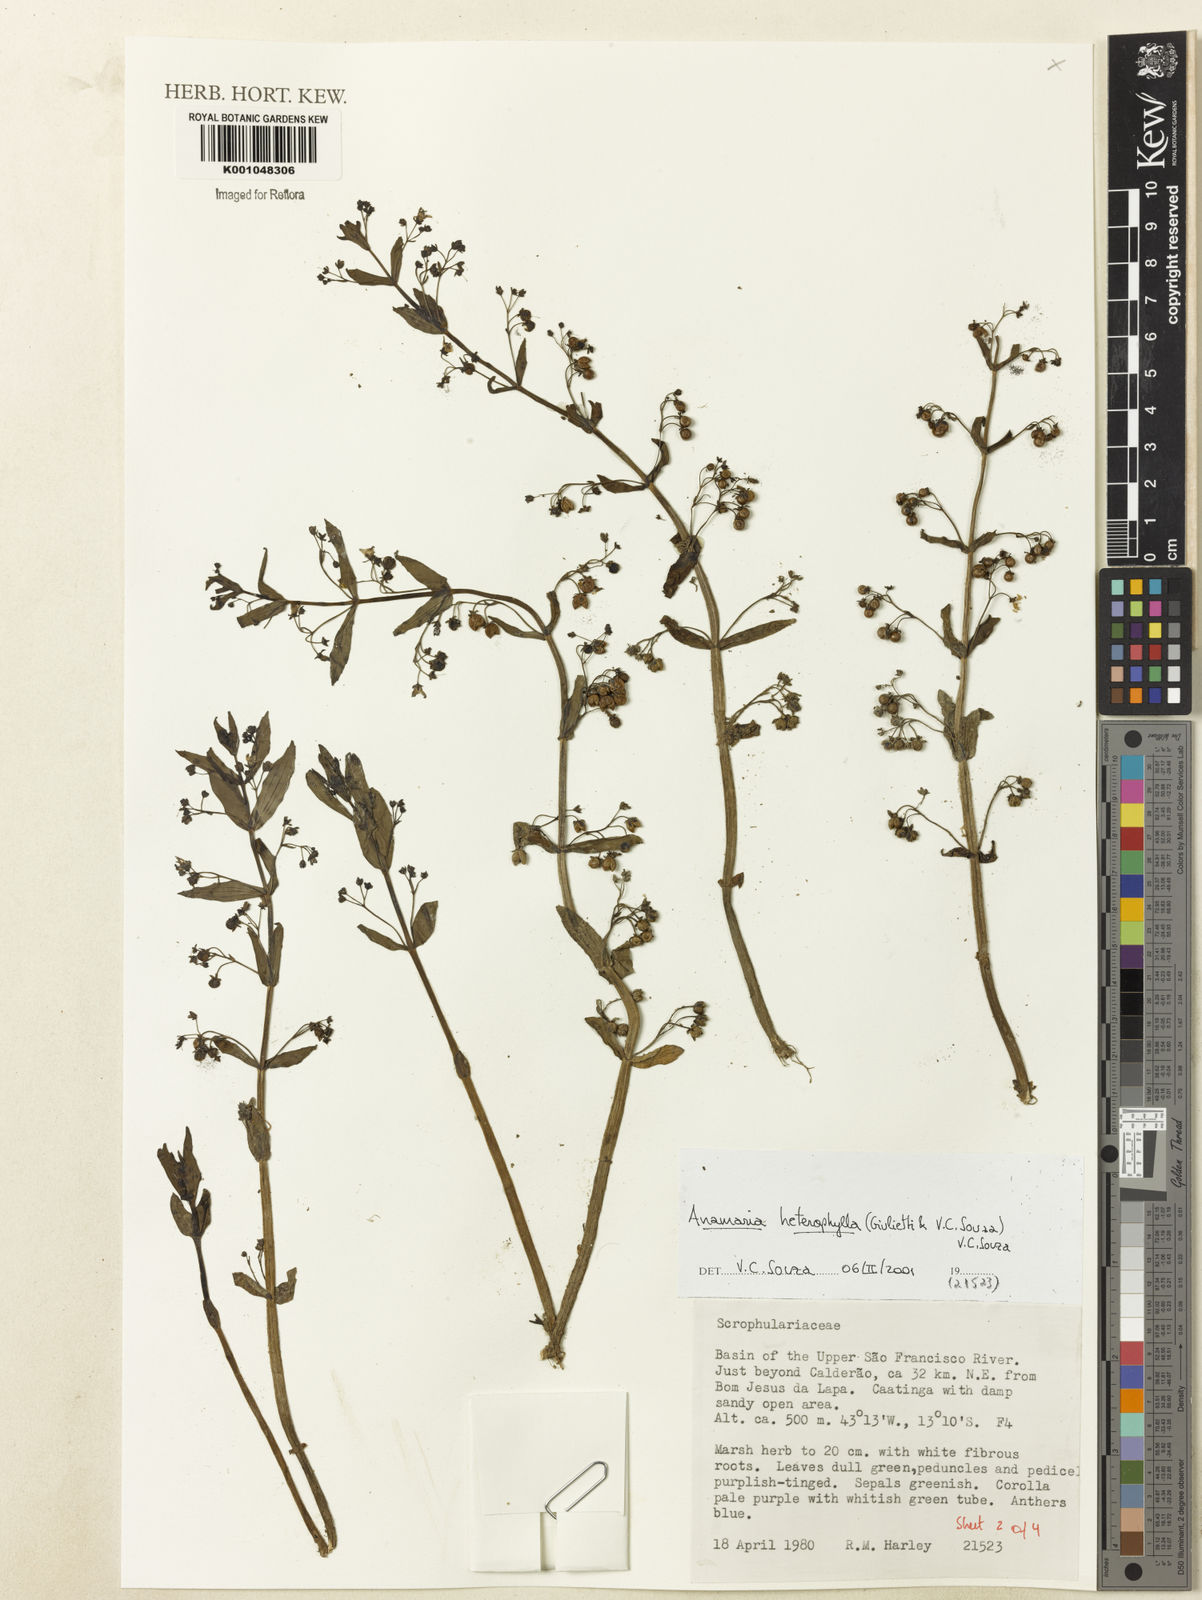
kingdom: Plantae
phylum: Tracheophyta
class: Magnoliopsida
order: Lamiales
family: Plantaginaceae
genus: Anamaria
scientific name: Anamaria heterophylla
